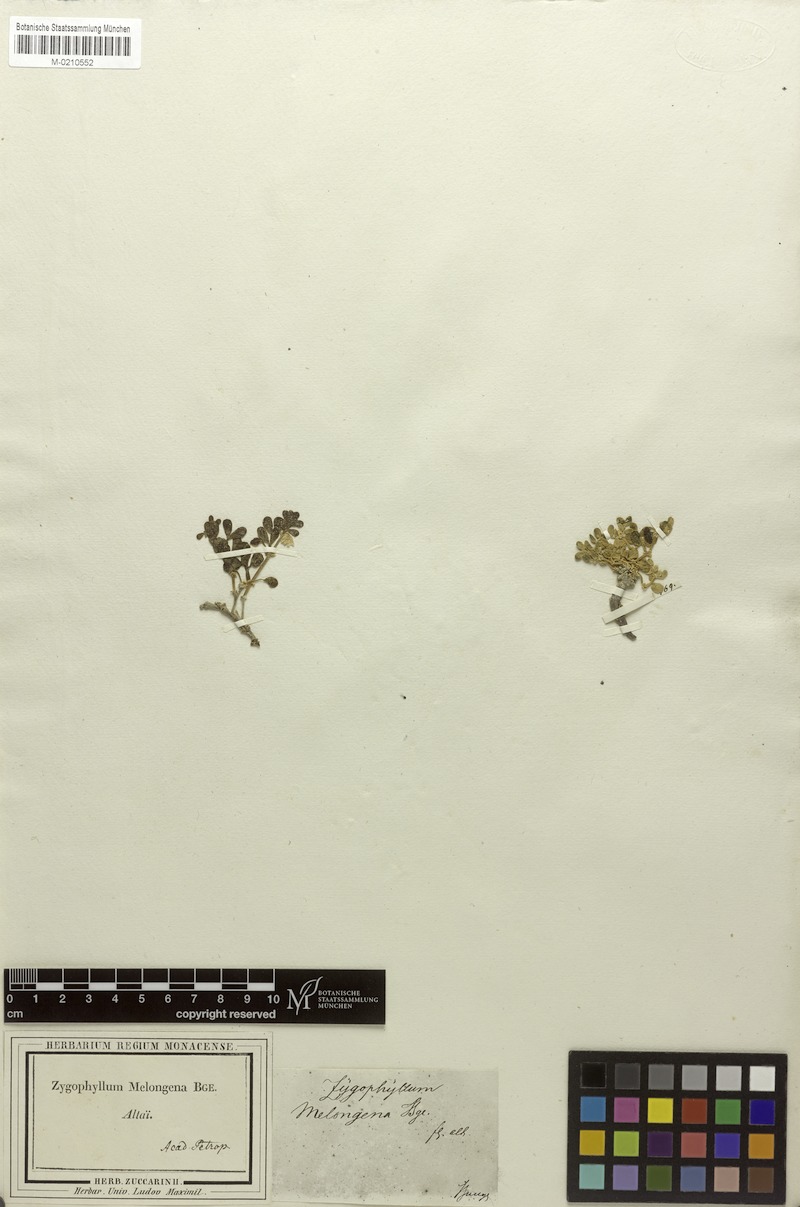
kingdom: Plantae
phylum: Tracheophyta
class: Magnoliopsida
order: Zygophyllales
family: Zygophyllaceae
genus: Zygophyllum
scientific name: Zygophyllum melongena
